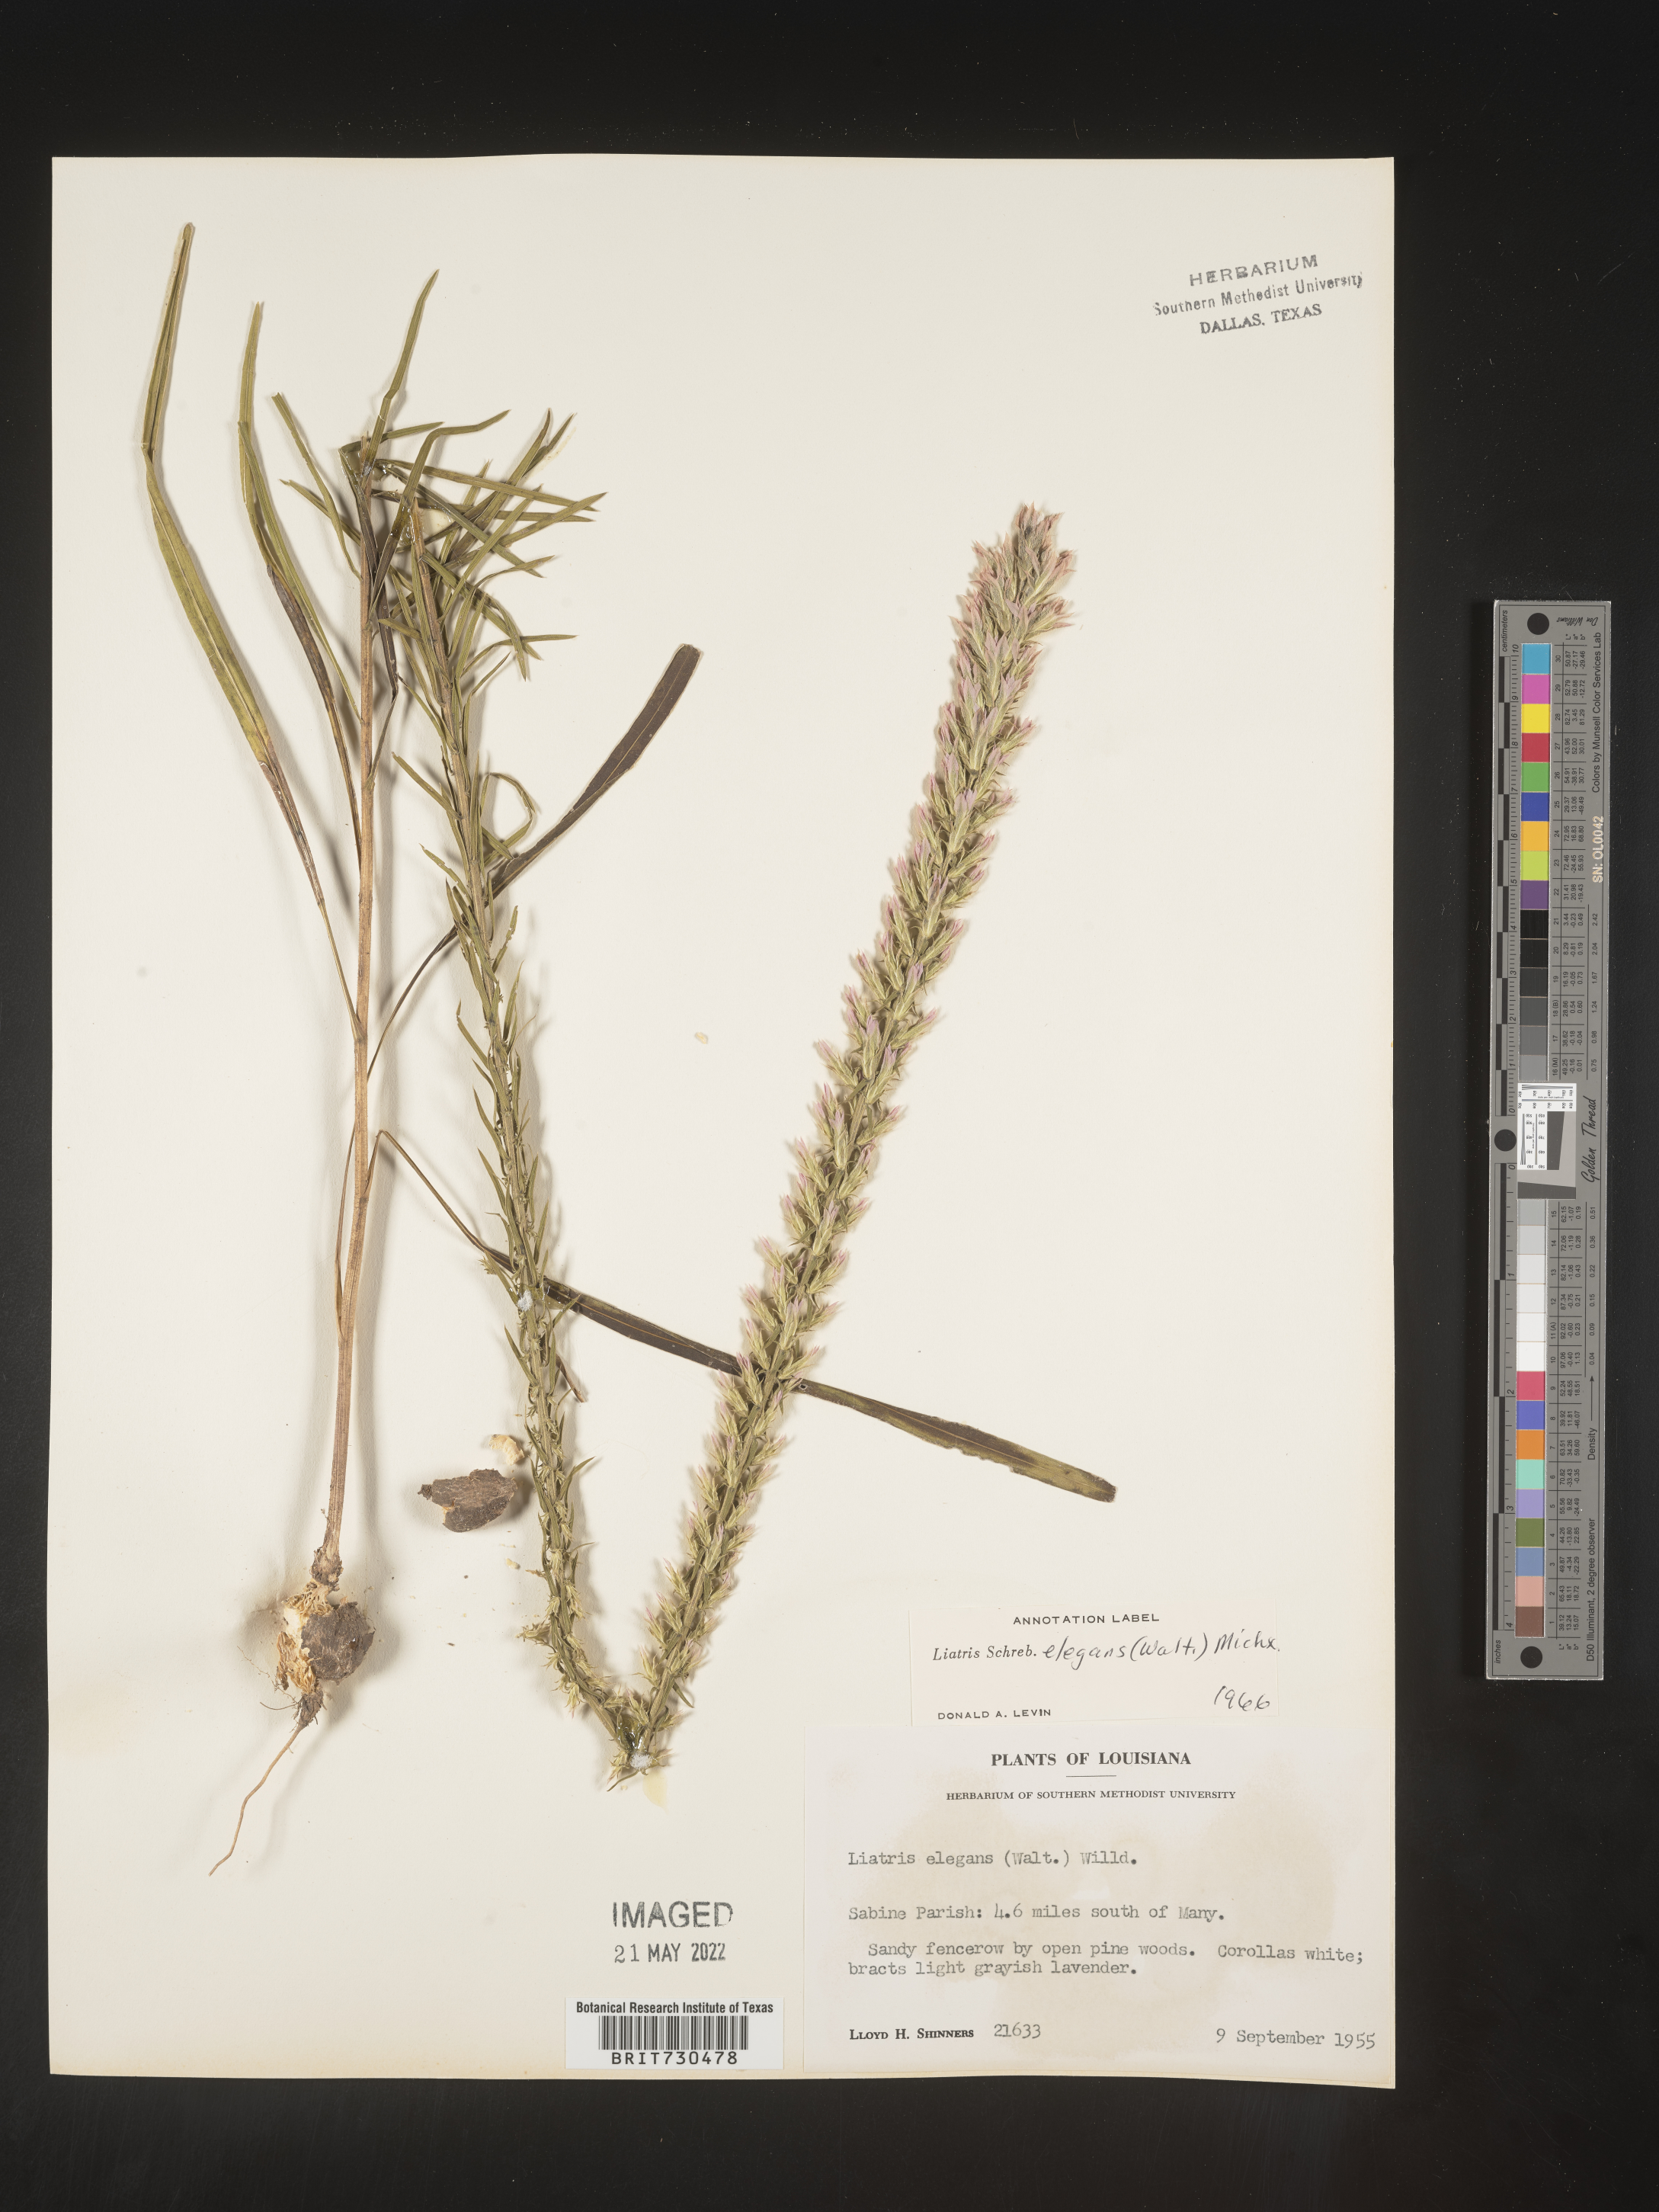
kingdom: Plantae
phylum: Tracheophyta
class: Magnoliopsida
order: Asterales
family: Asteraceae
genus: Liatris
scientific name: Liatris elegans
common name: Pinkscale gayfeather
